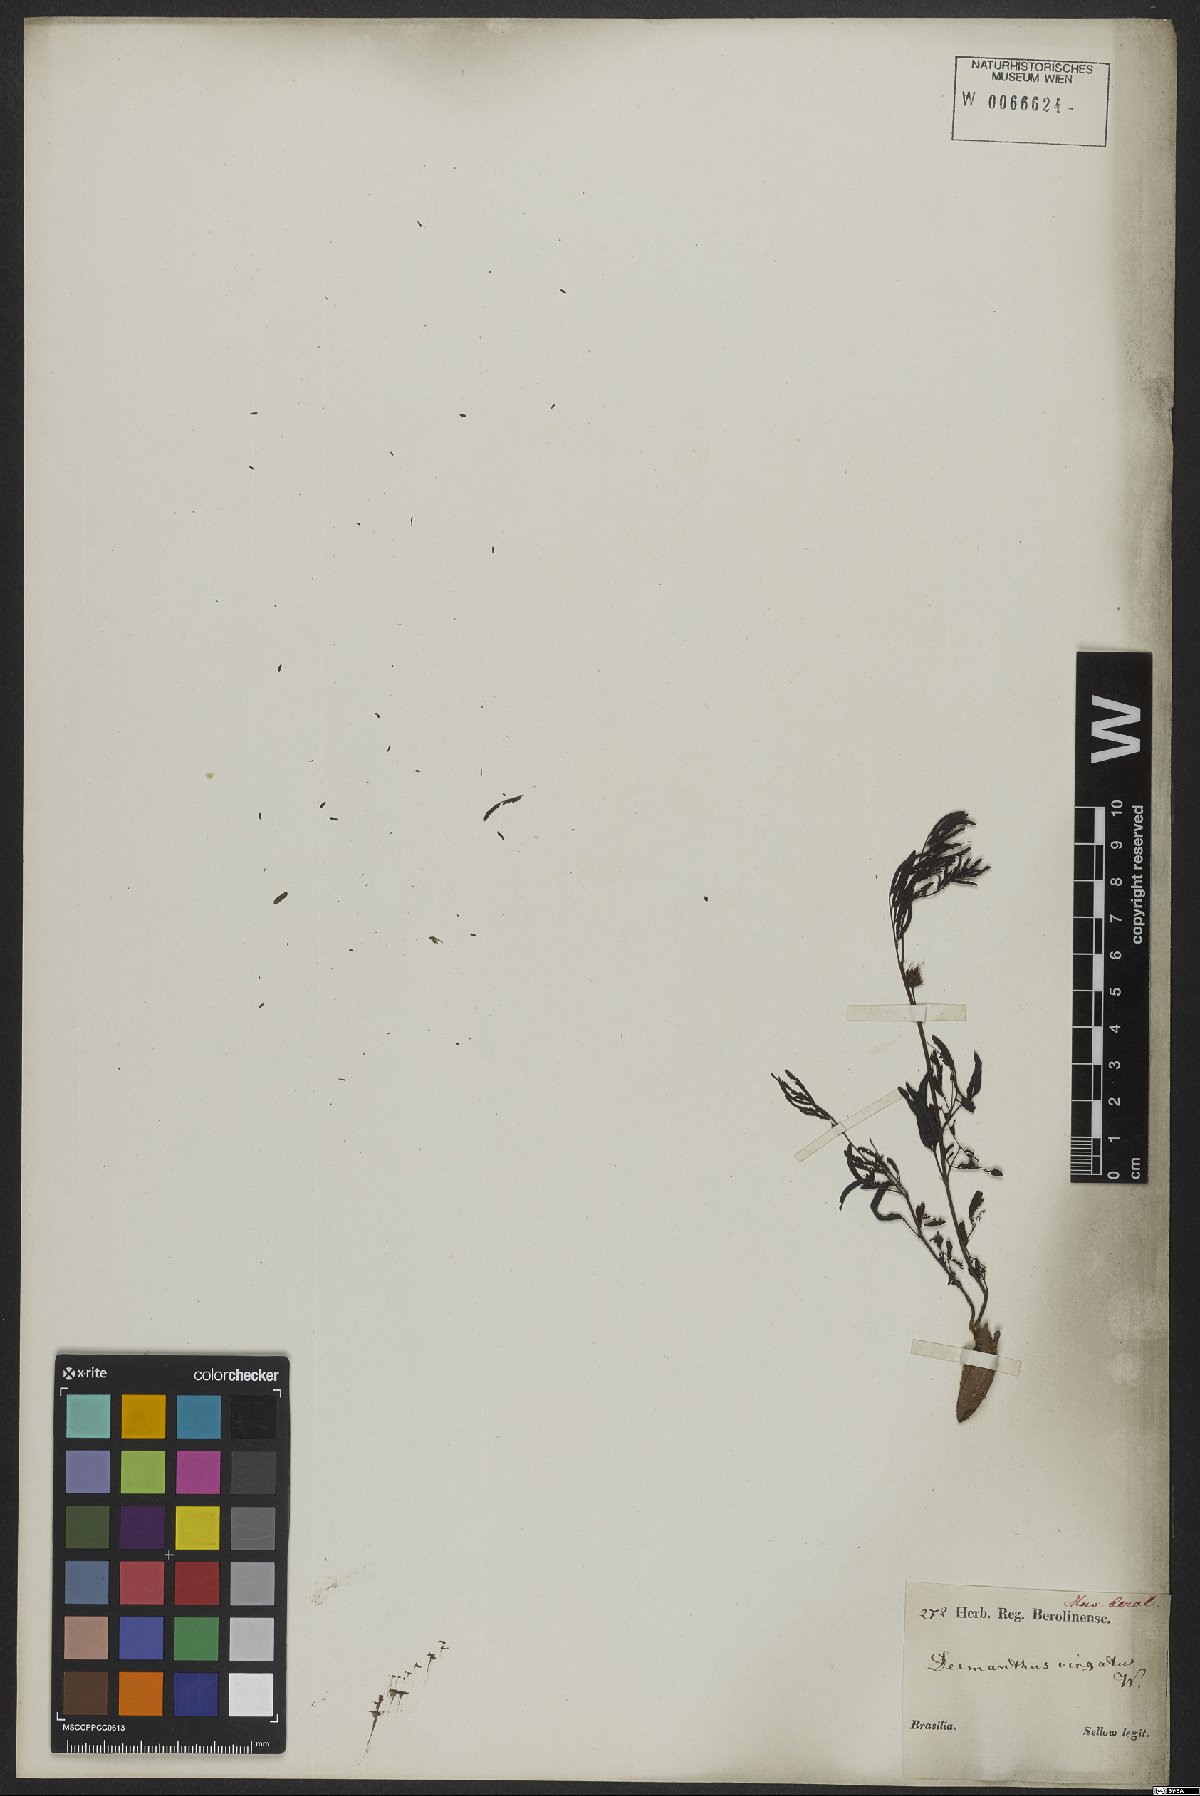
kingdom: Plantae
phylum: Tracheophyta
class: Magnoliopsida
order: Fabales
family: Fabaceae
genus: Desmanthus
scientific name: Desmanthus virgatus
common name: Wild tantan
